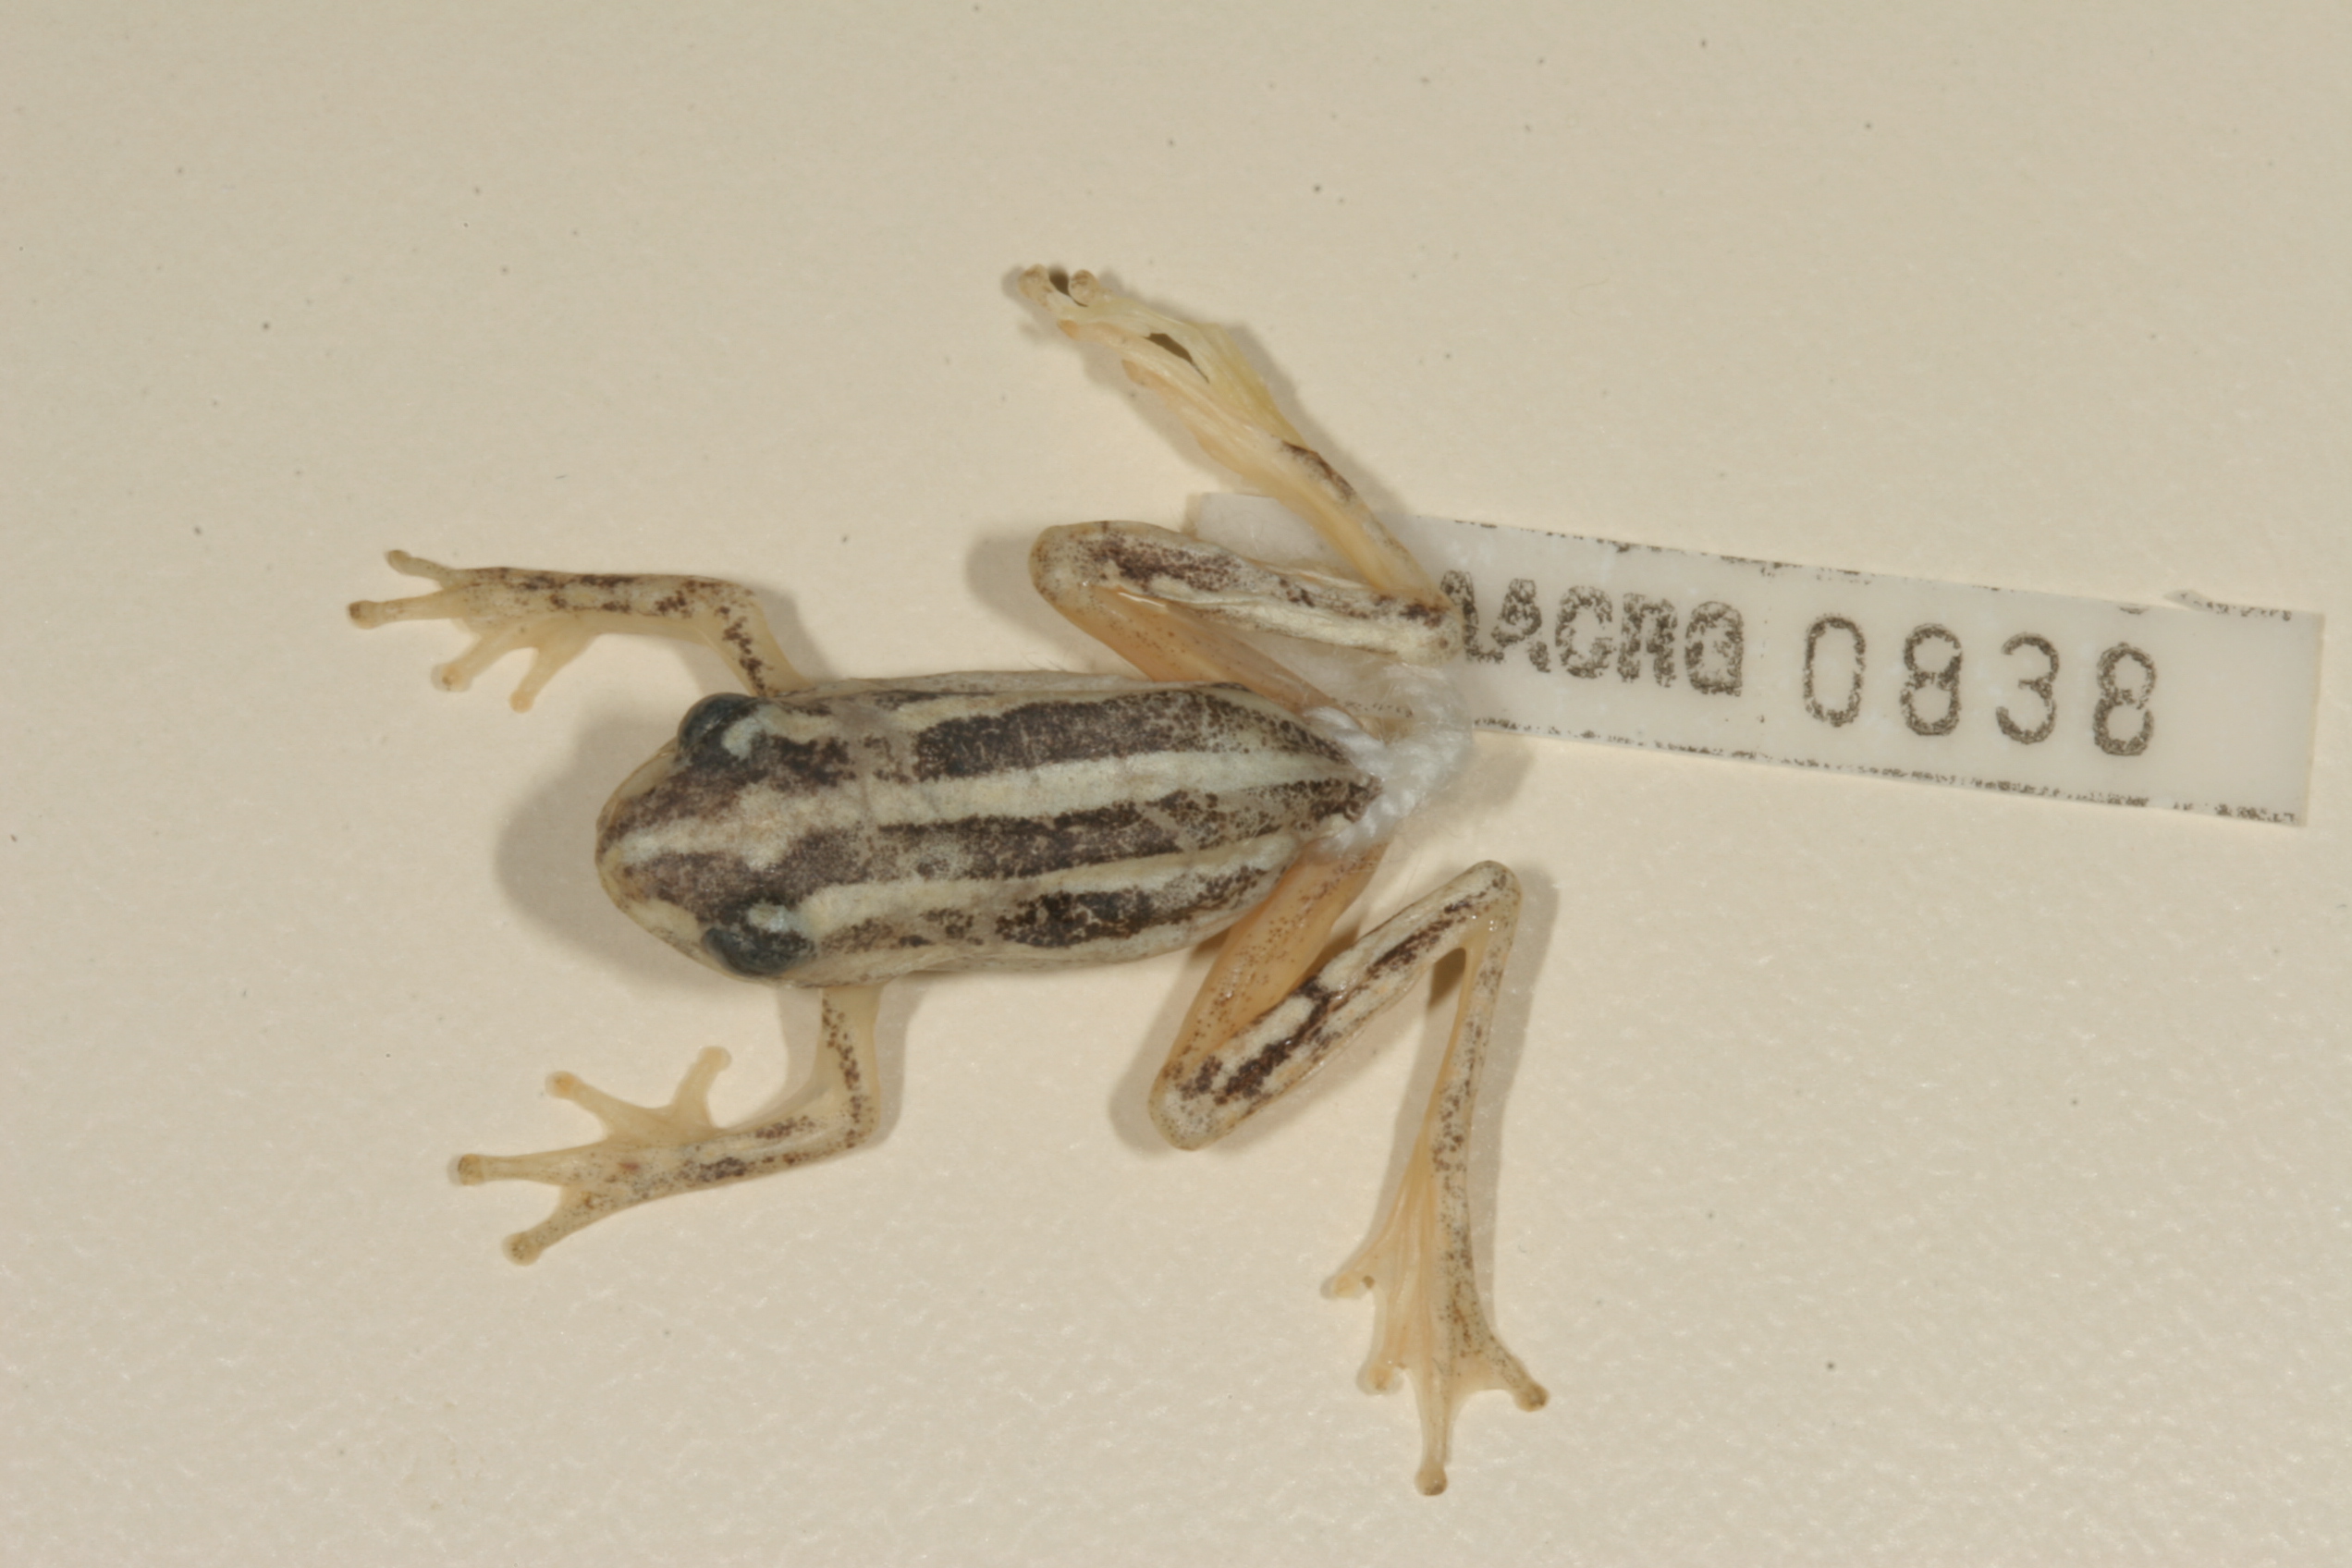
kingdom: Animalia
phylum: Chordata
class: Amphibia
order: Anura
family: Hyperoliidae
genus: Hyperolius
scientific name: Hyperolius marmoratus
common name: Painted reed frog
